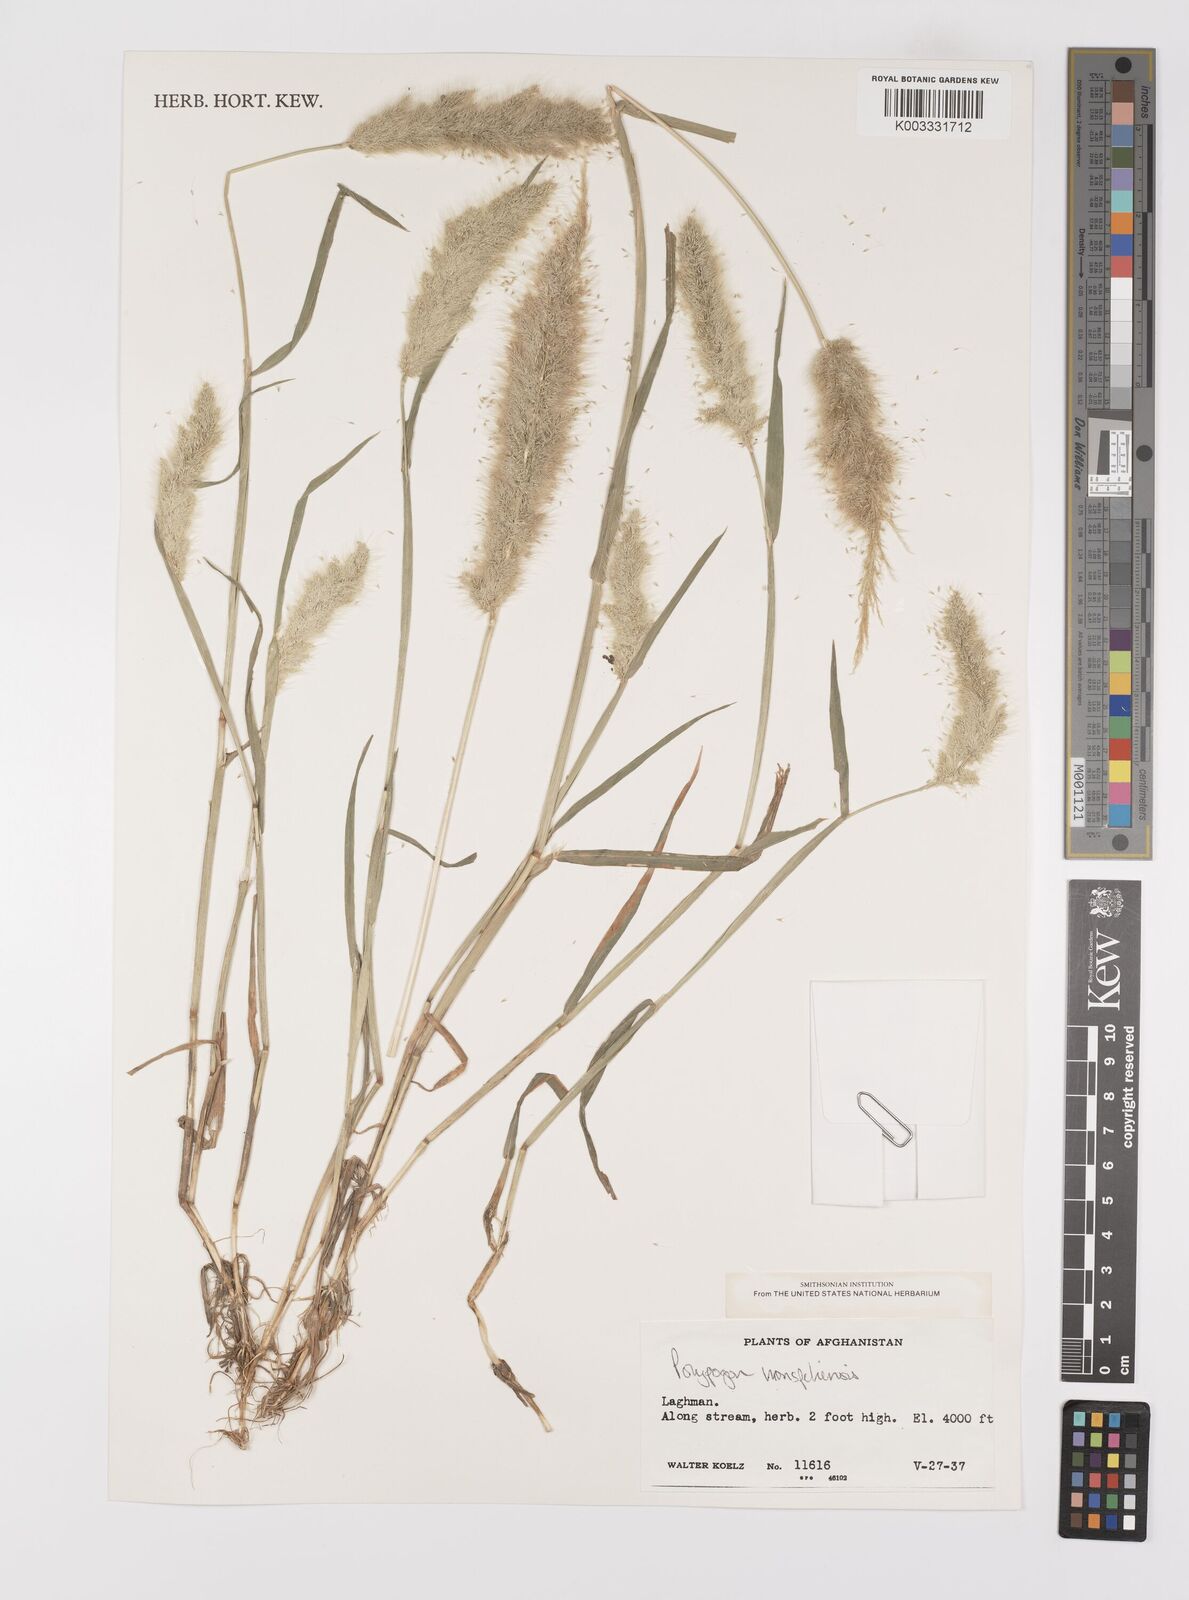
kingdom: Plantae
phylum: Tracheophyta
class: Liliopsida
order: Poales
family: Poaceae
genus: Polypogon
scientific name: Polypogon monspeliensis
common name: Annual rabbitsfoot grass
